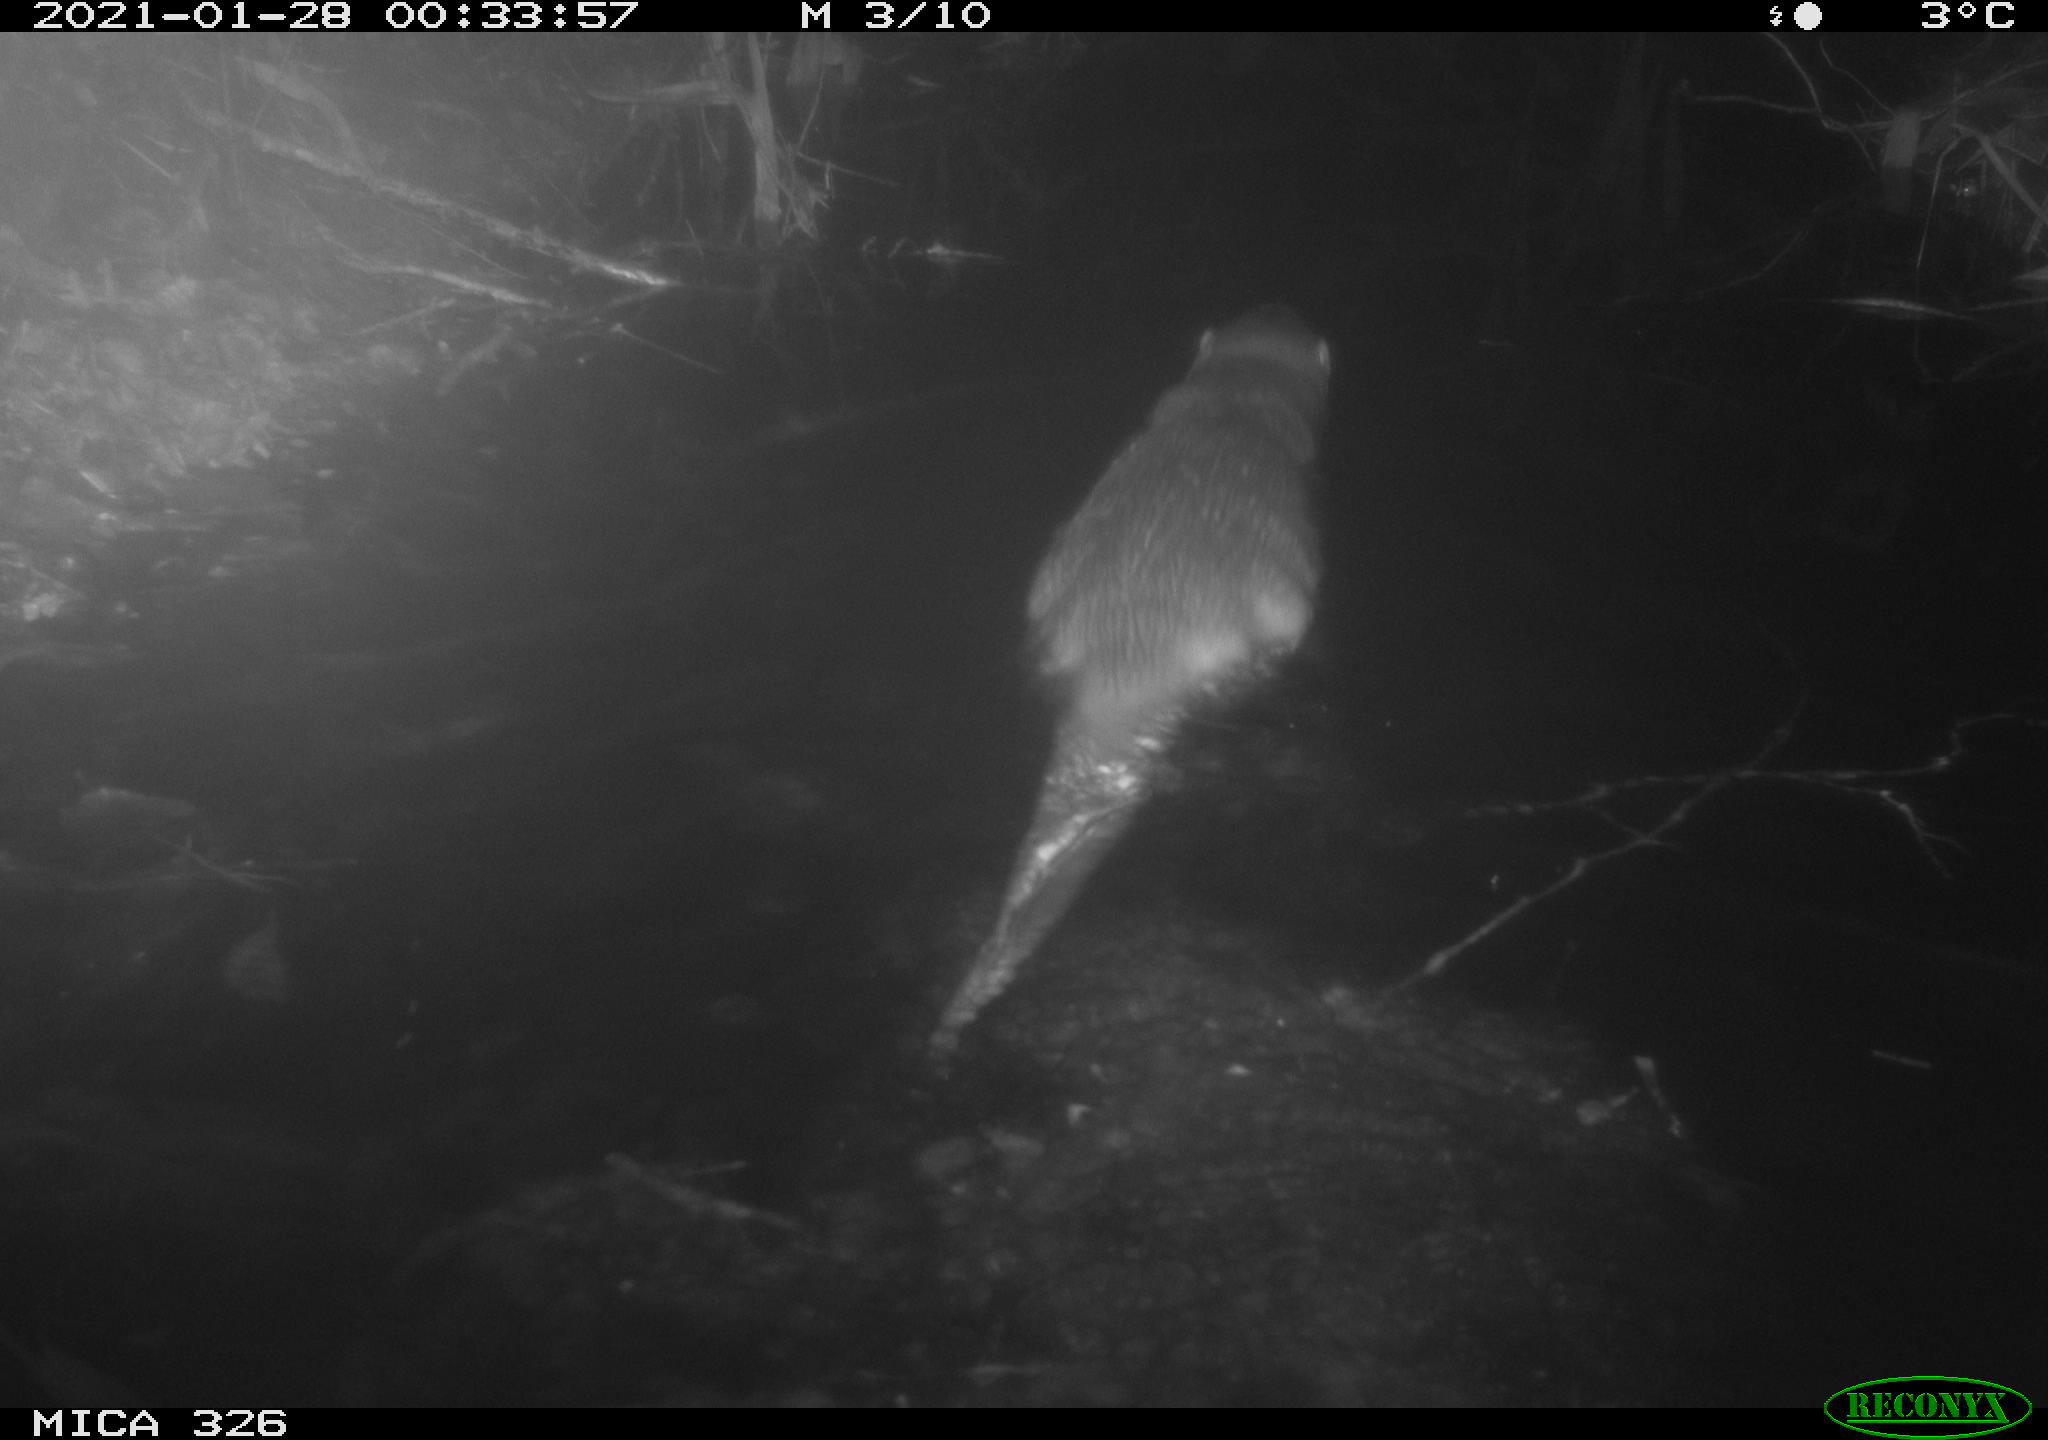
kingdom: Animalia
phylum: Chordata
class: Mammalia
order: Rodentia
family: Cricetidae
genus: Ondatra
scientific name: Ondatra zibethicus
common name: Muskrat
